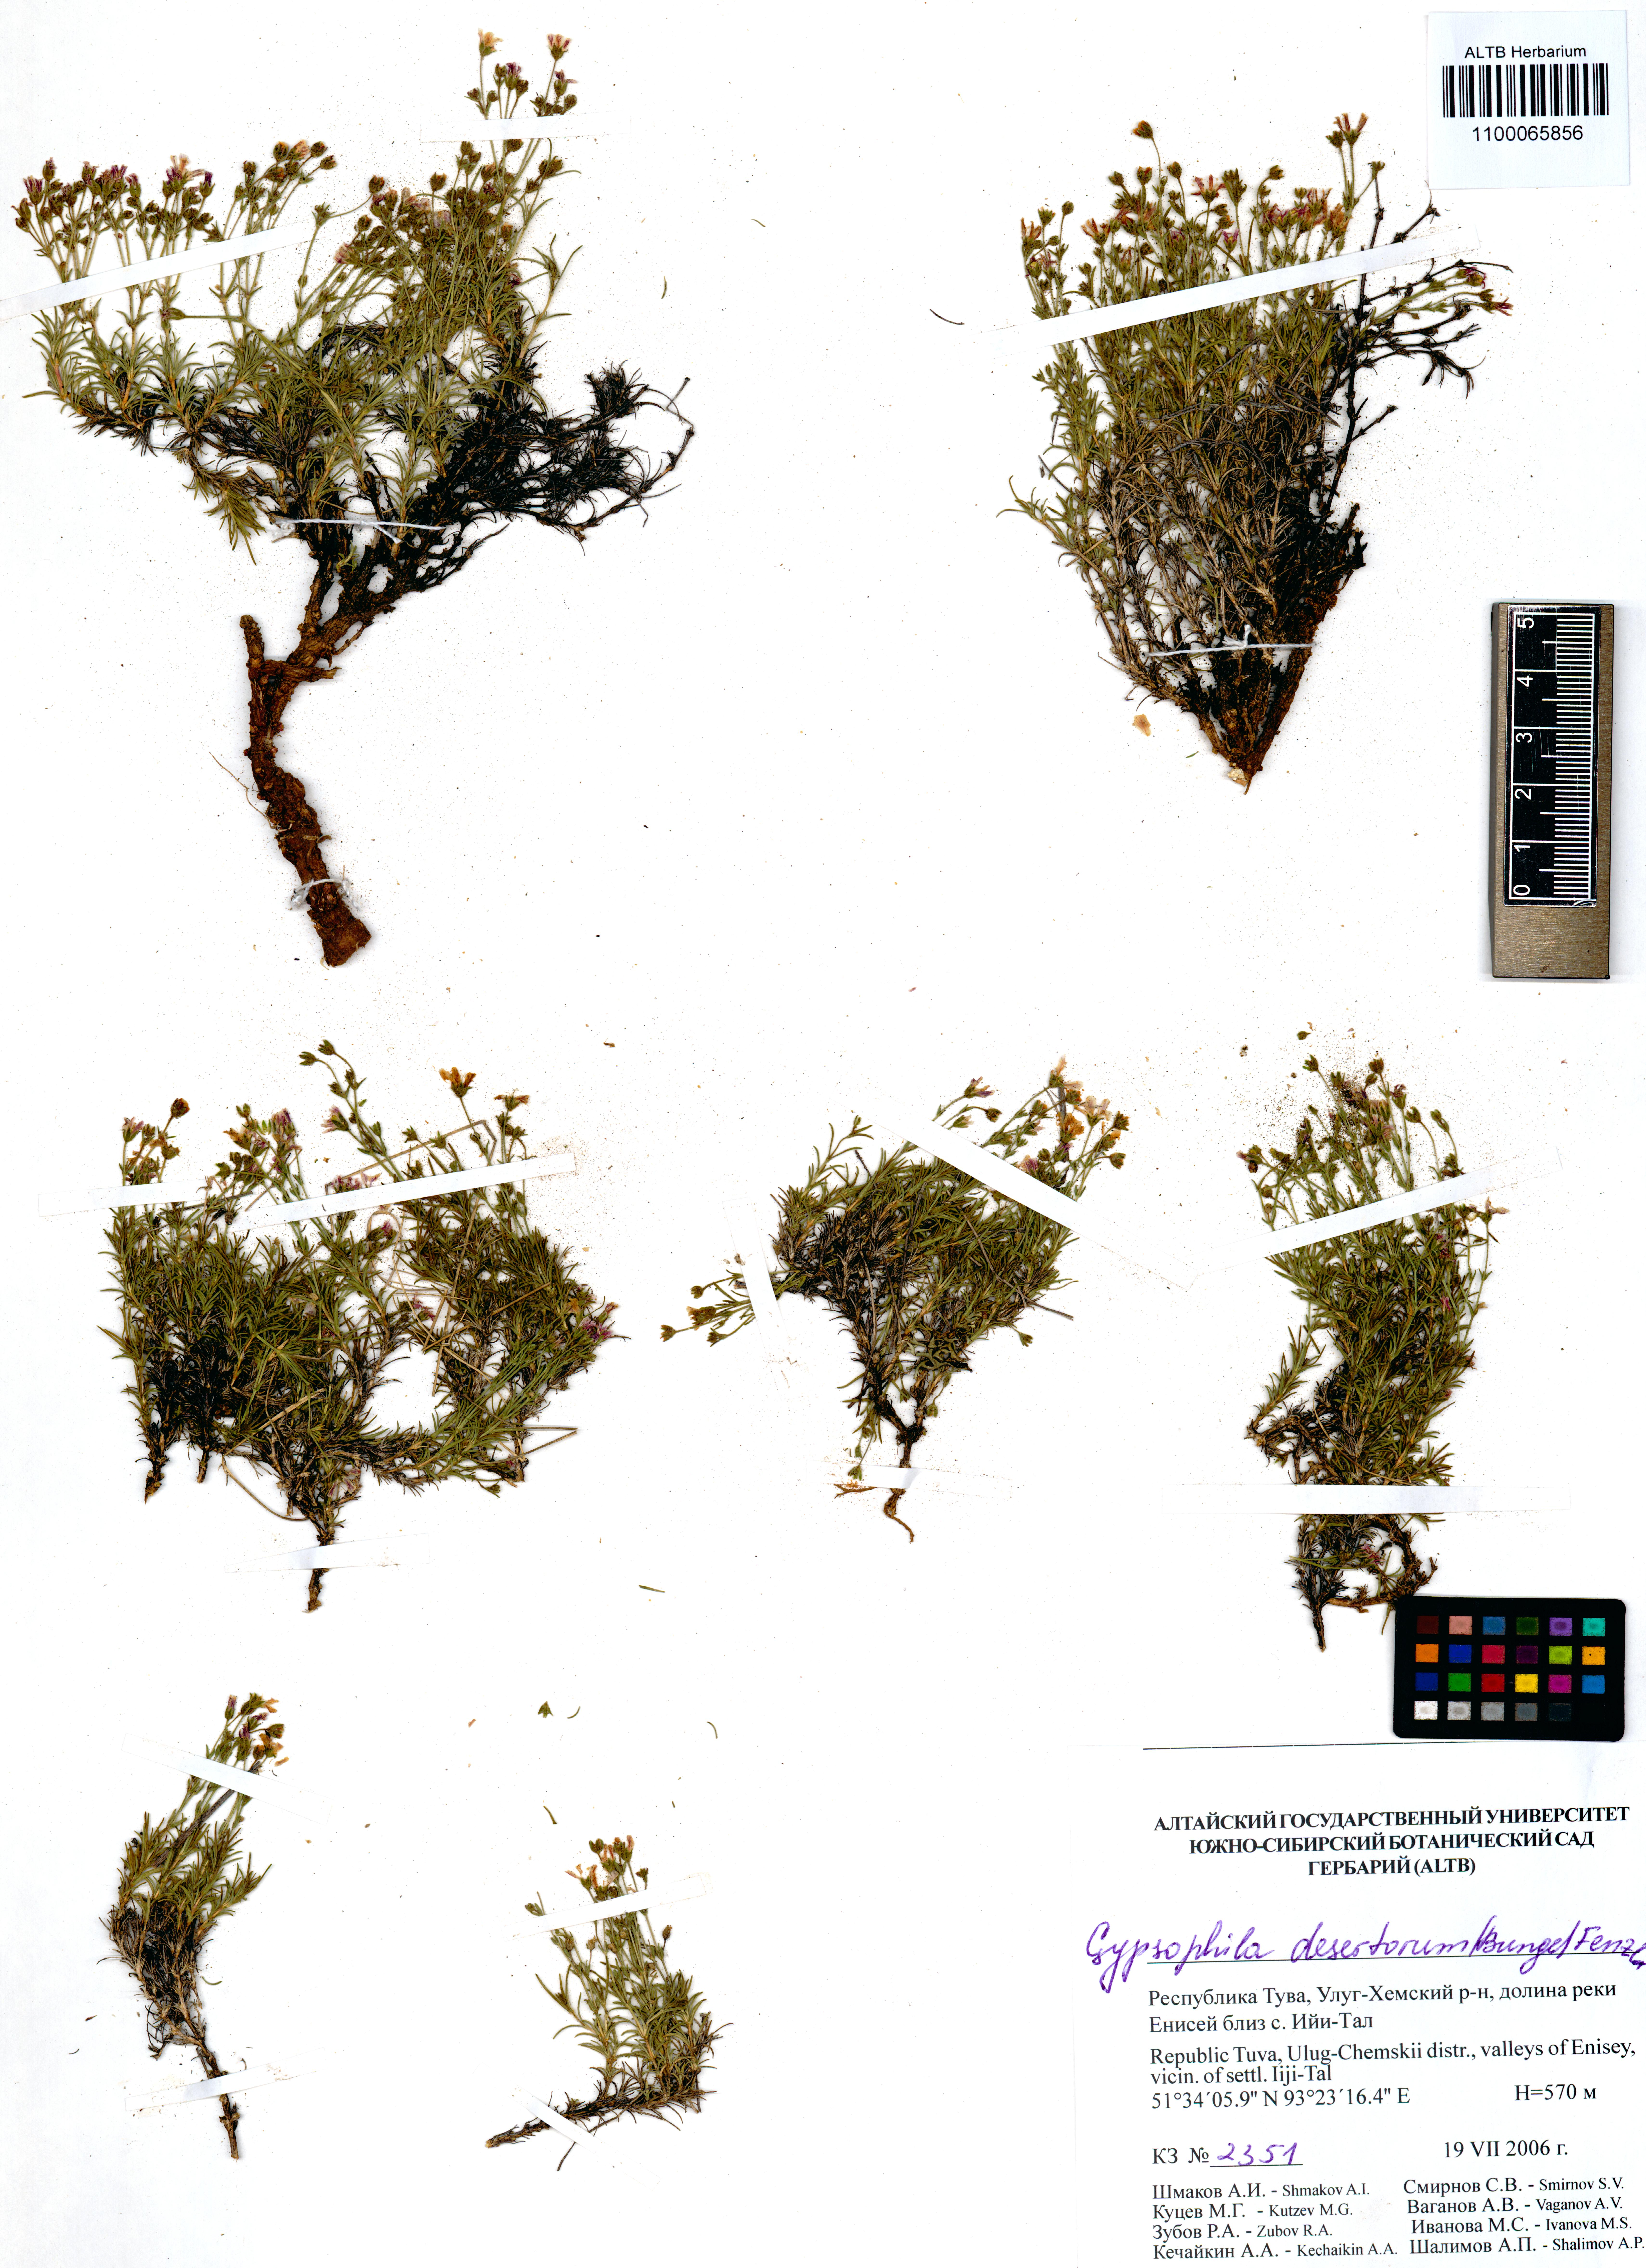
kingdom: Plantae
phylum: Tracheophyta
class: Magnoliopsida
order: Caryophyllales
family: Caryophyllaceae
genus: Heterochroa
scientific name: Heterochroa desertorum
